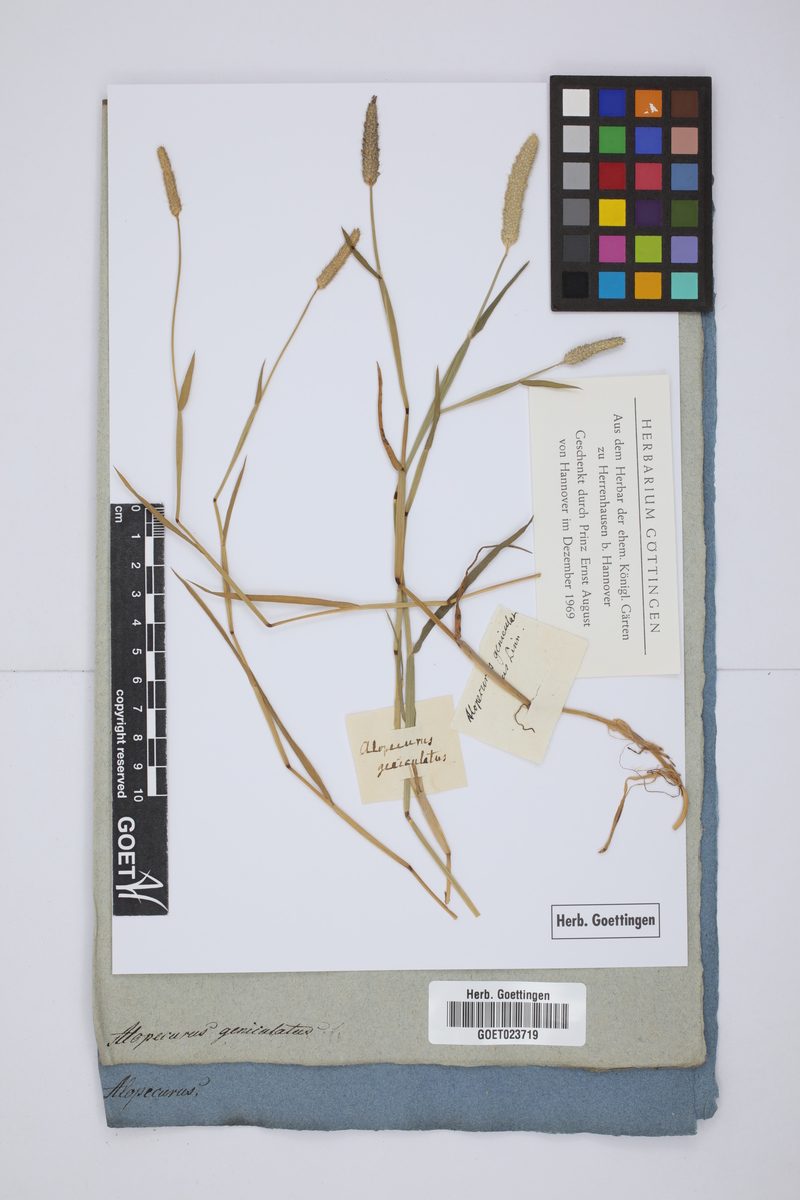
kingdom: Plantae
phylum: Tracheophyta
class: Liliopsida
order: Poales
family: Poaceae
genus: Alopecurus
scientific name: Alopecurus geniculatus
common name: Water foxtail
